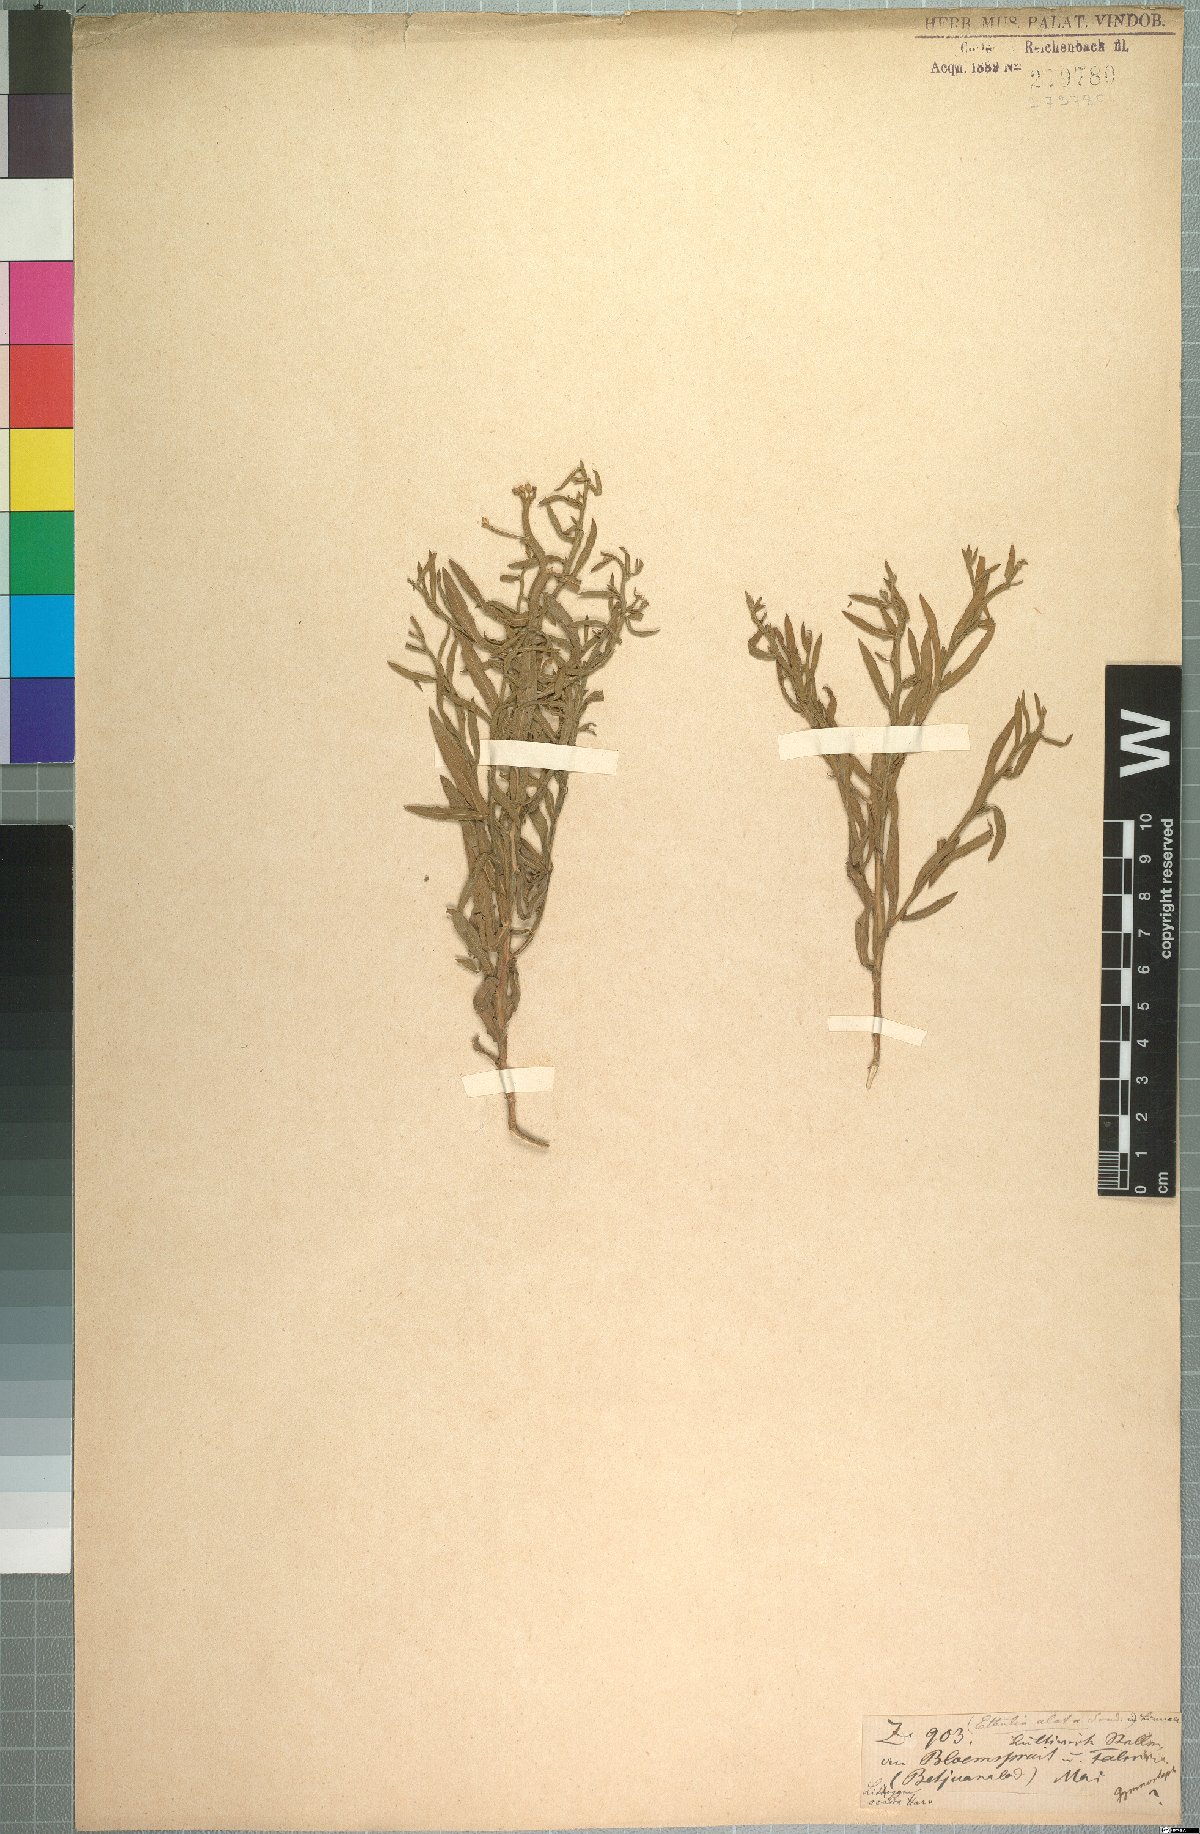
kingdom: Plantae
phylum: Tracheophyta
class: Magnoliopsida
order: Asterales
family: Asteraceae
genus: Litogyne
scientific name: Litogyne gariepina
